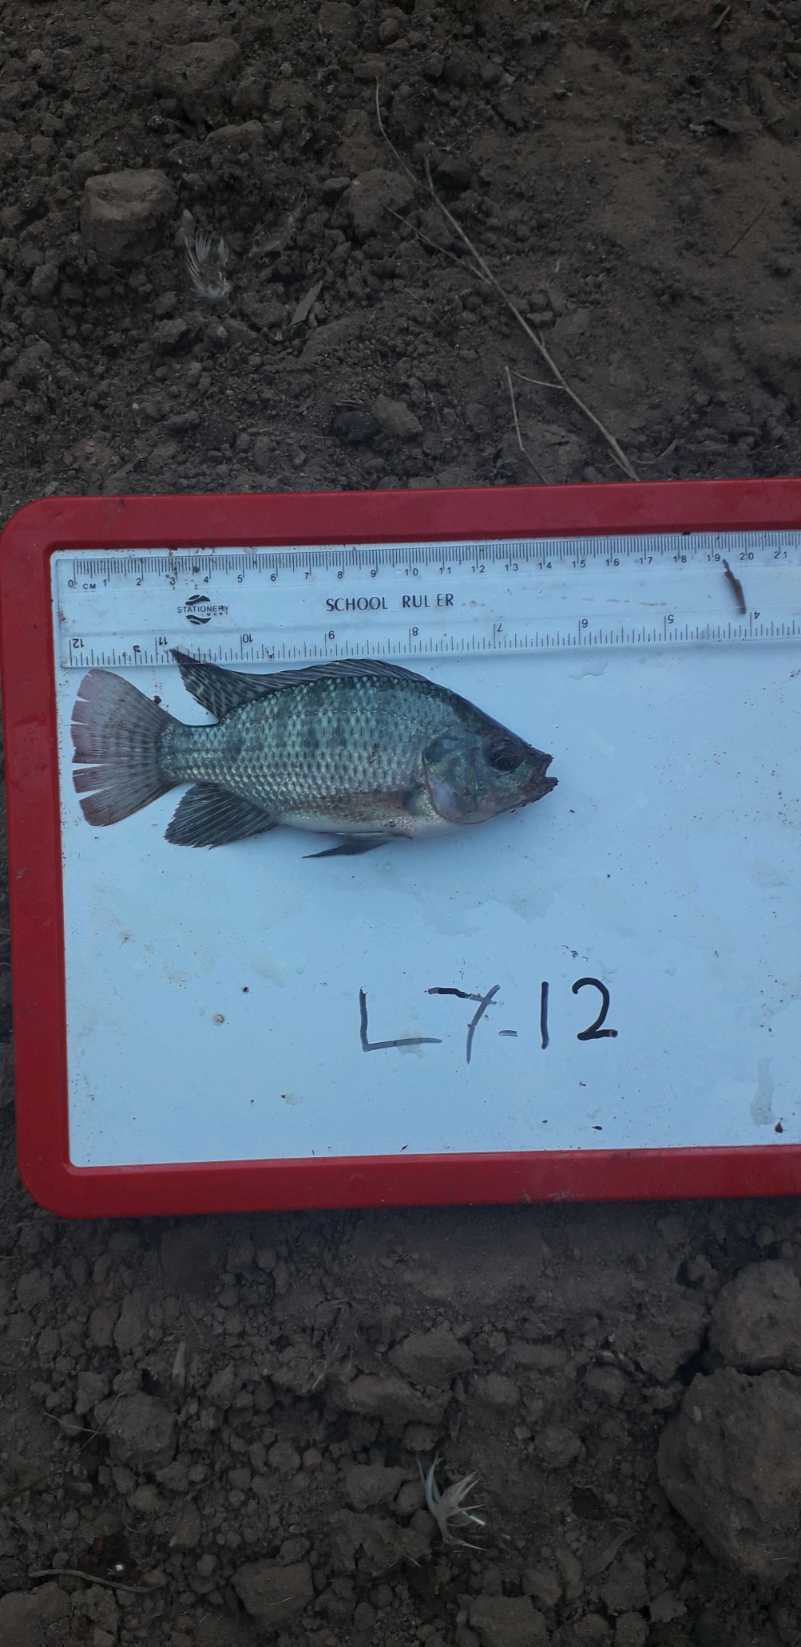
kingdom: Animalia
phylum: Chordata
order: Perciformes
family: Cichlidae
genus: Oreochromis
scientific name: Oreochromis niloticus
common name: Nile tilapia
